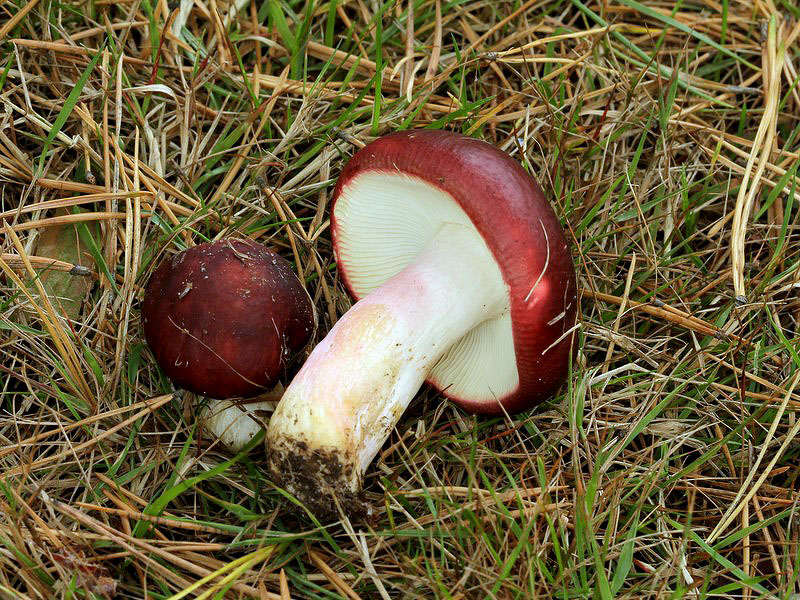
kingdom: Fungi
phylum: Basidiomycota
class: Agaricomycetes
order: Russulales
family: Russulaceae
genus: Russula
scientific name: Russula xerampelina
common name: hummer-skørhat
